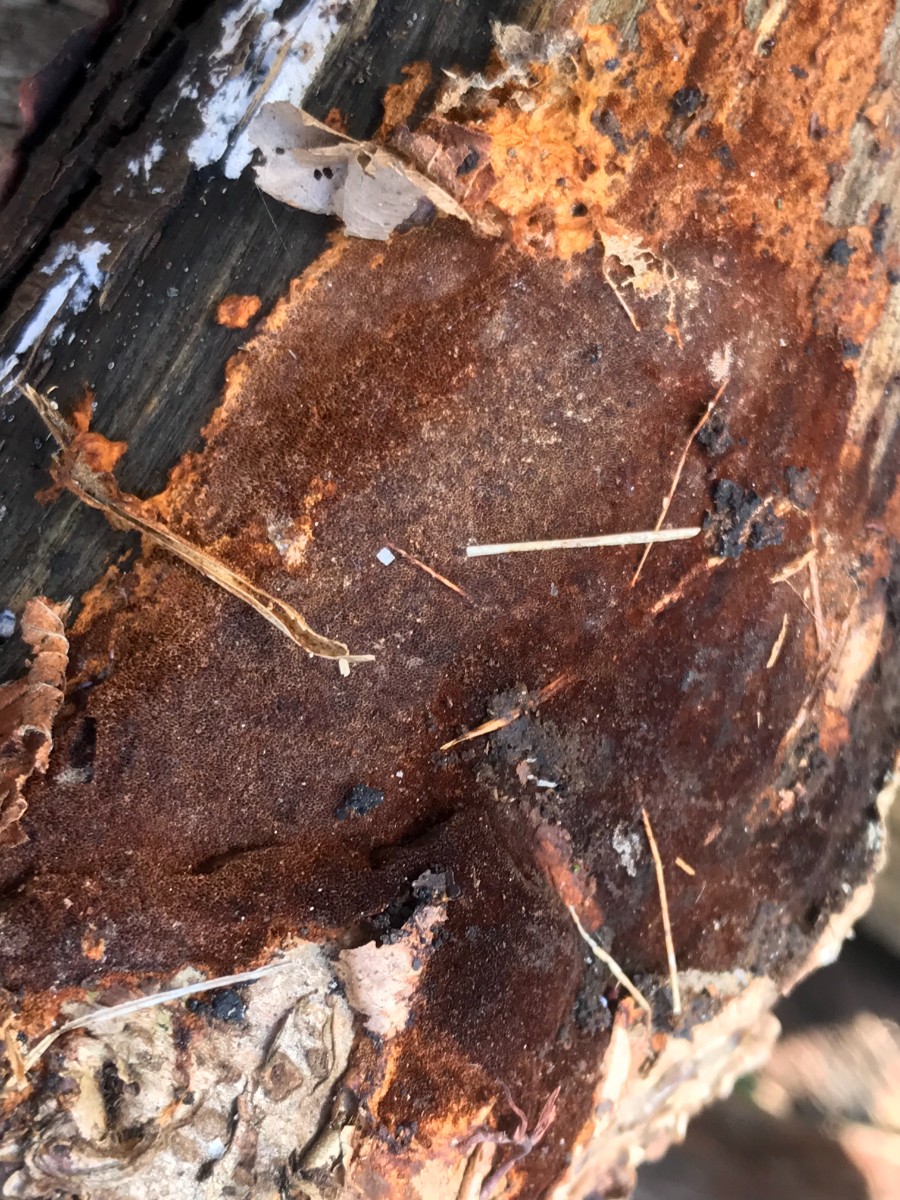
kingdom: Fungi
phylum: Basidiomycota
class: Agaricomycetes
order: Hymenochaetales
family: Hymenochaetaceae
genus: Fuscoporia
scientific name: Fuscoporia ferrea
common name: skorpe-ildporesvamp
